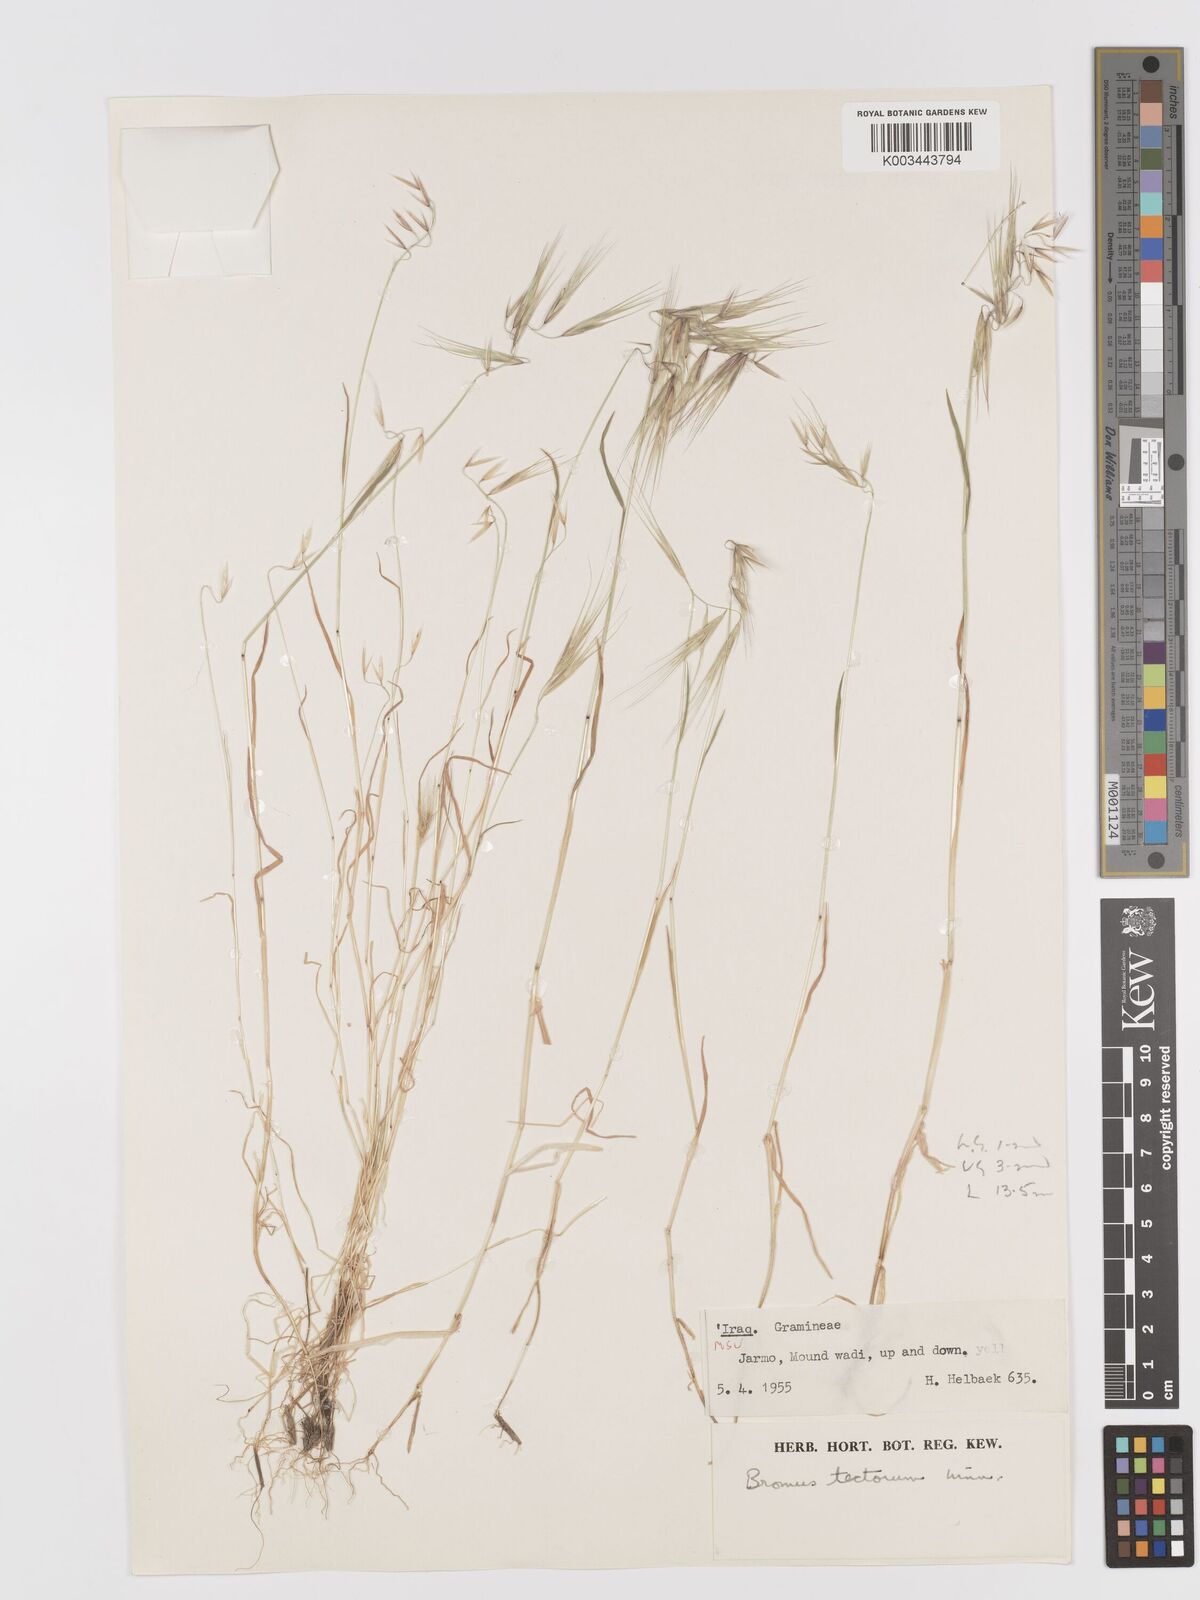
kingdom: Plantae
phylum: Tracheophyta
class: Liliopsida
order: Poales
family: Poaceae
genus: Bromus
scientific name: Bromus tectorum
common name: Cheatgrass
